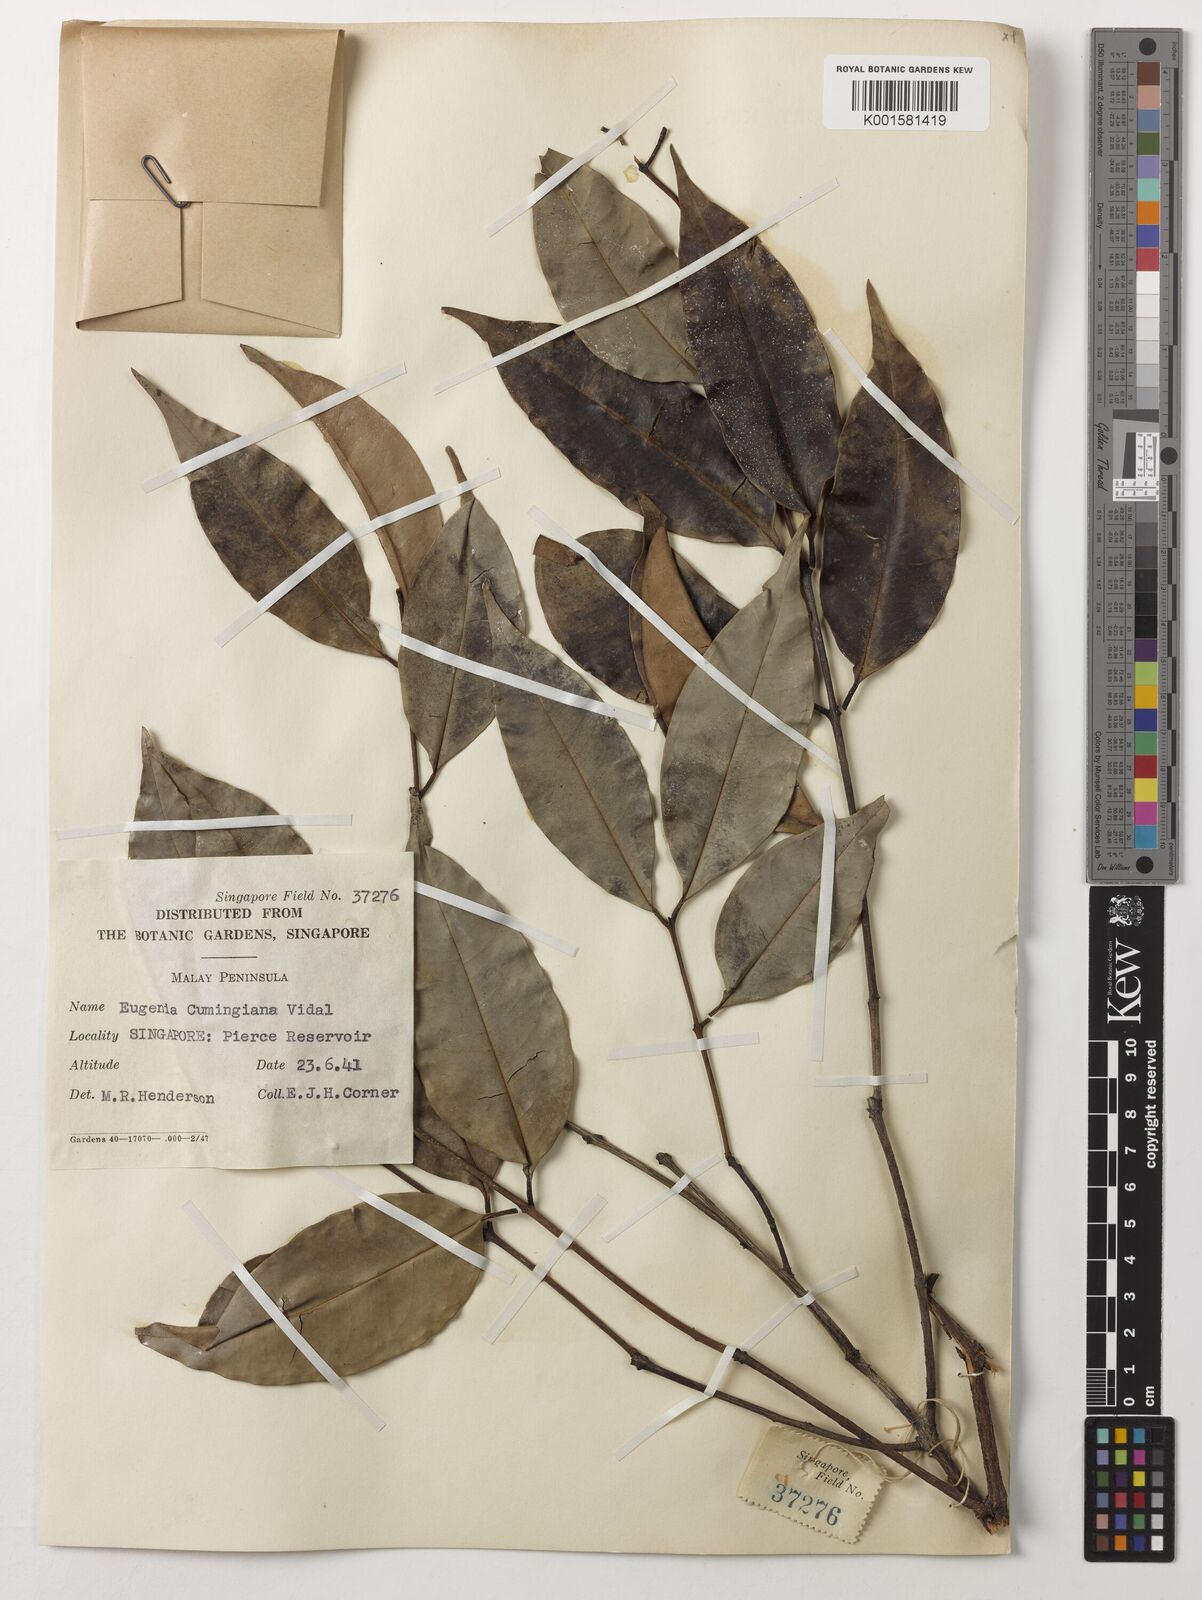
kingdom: Plantae
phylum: Tracheophyta
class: Magnoliopsida
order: Myrtales
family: Myrtaceae
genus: Syzygium
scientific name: Syzygium acuminatissimum
